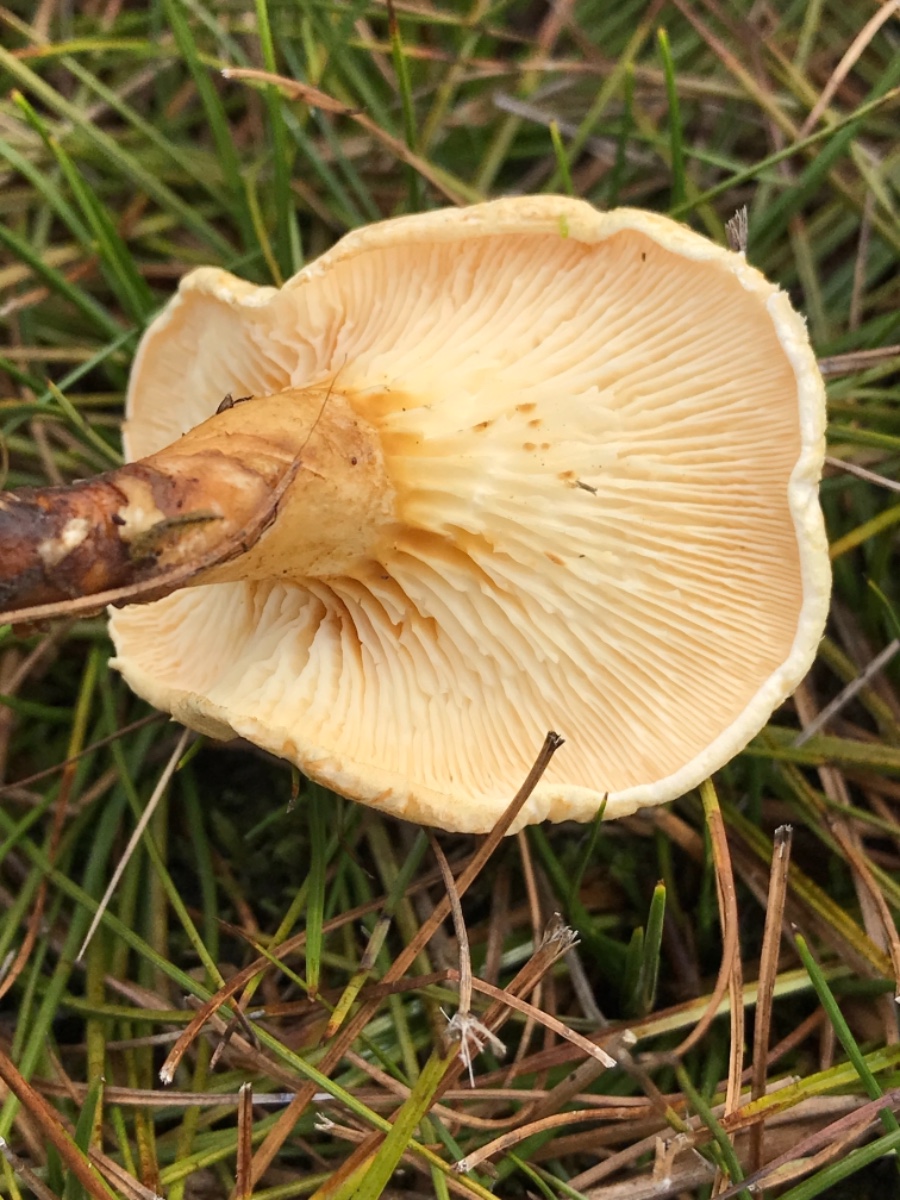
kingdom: Fungi
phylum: Basidiomycota
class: Agaricomycetes
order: Boletales
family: Hygrophoropsidaceae
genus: Hygrophoropsis
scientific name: Hygrophoropsis pallida
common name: bleg orangekantarel
